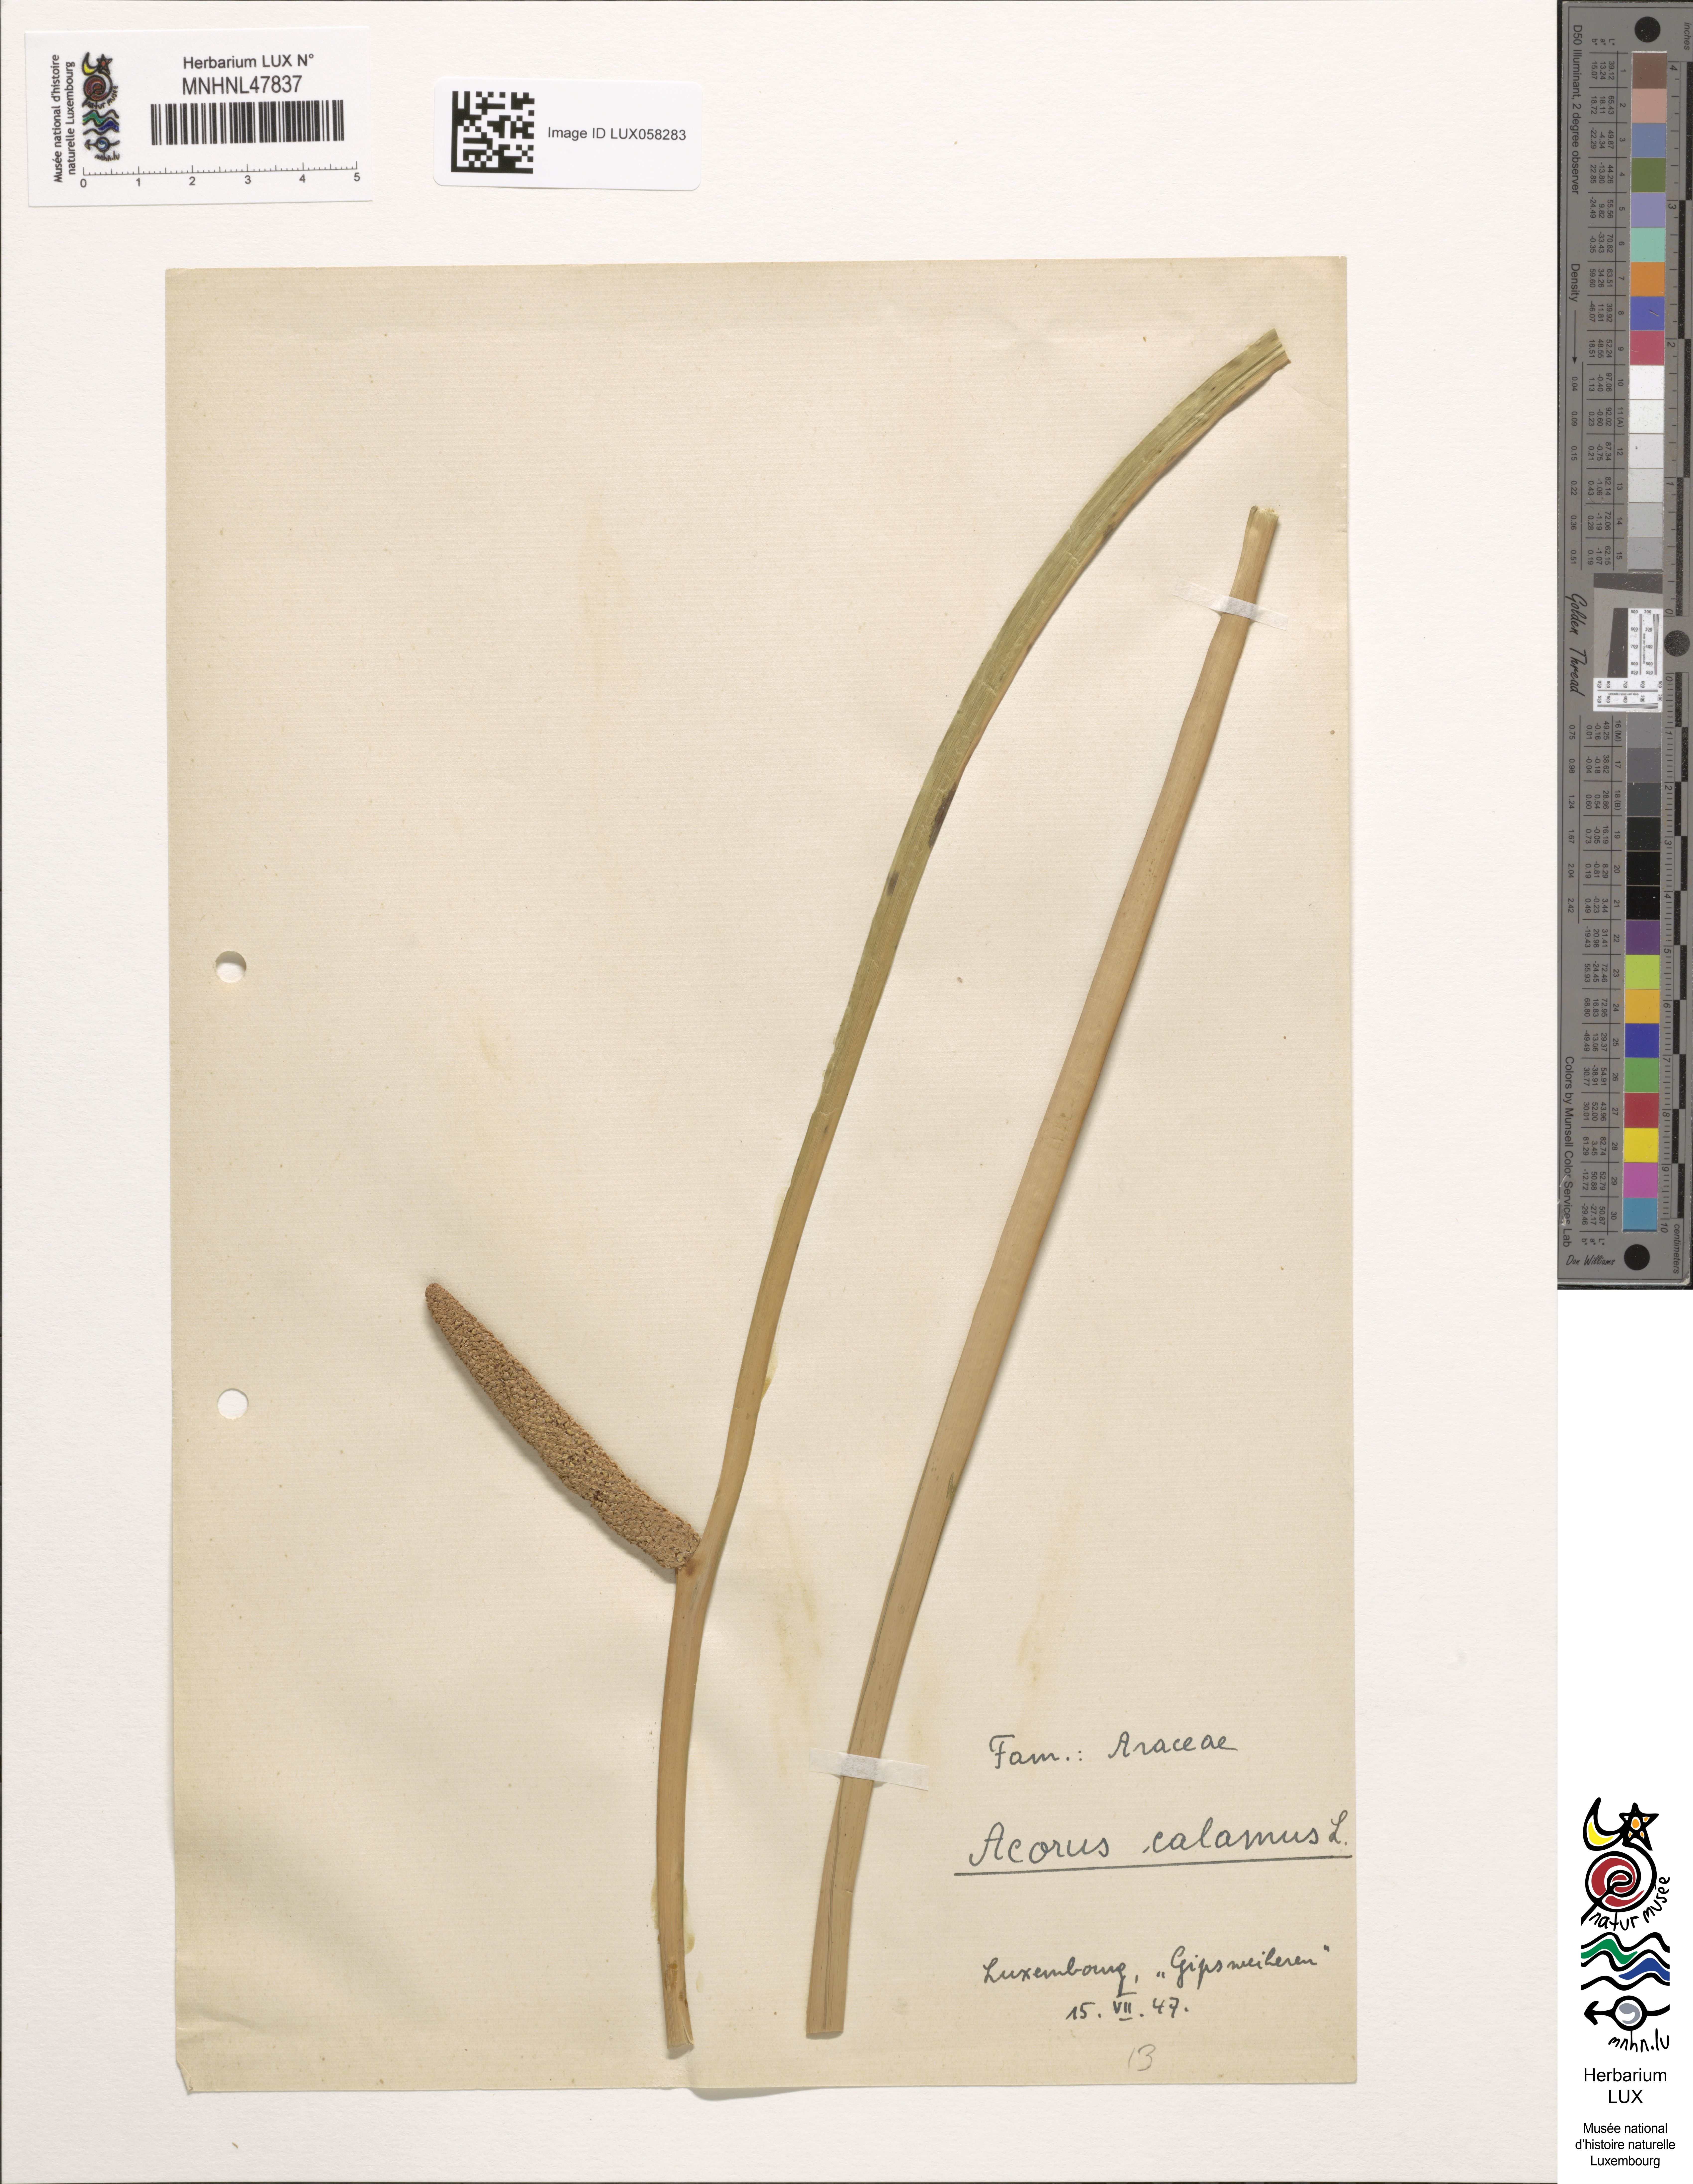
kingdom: Plantae
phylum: Tracheophyta
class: Liliopsida
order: Acorales
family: Acoraceae
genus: Acorus
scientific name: Acorus calamus
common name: Sweet-flag
